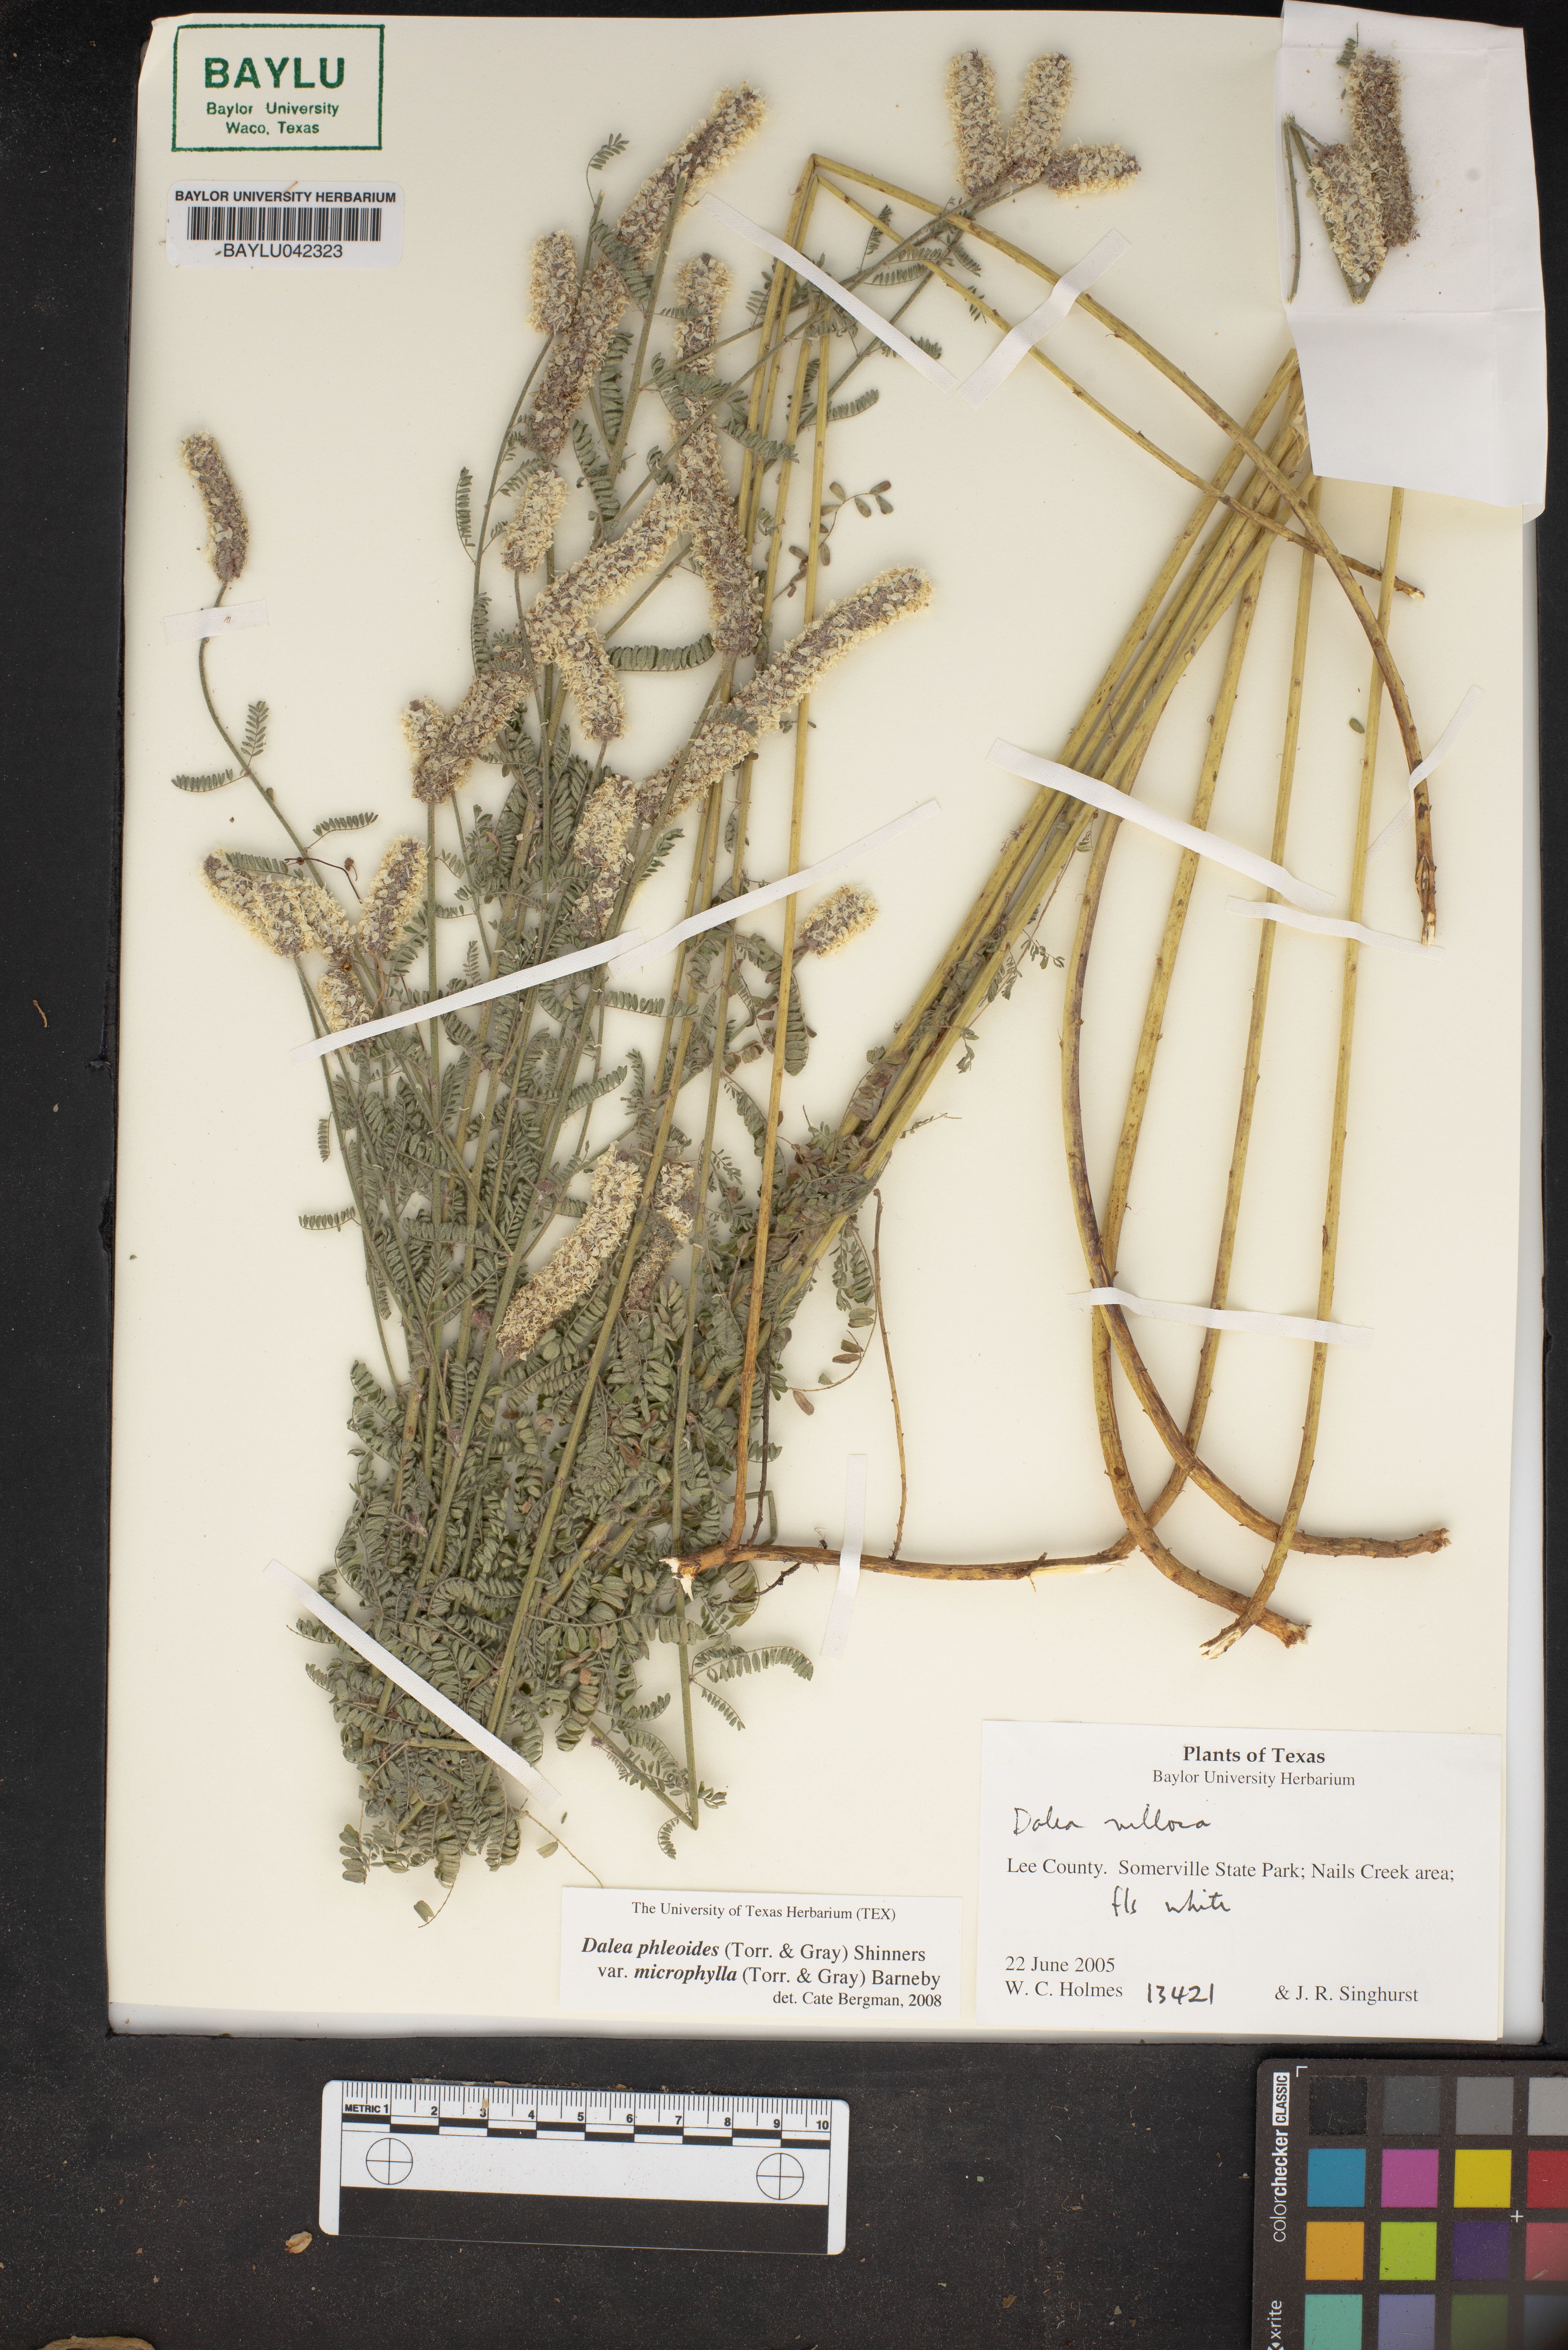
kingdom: Plantae
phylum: Tracheophyta
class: Magnoliopsida
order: Fabales
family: Fabaceae
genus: Dalea
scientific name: Dalea drummondiana
